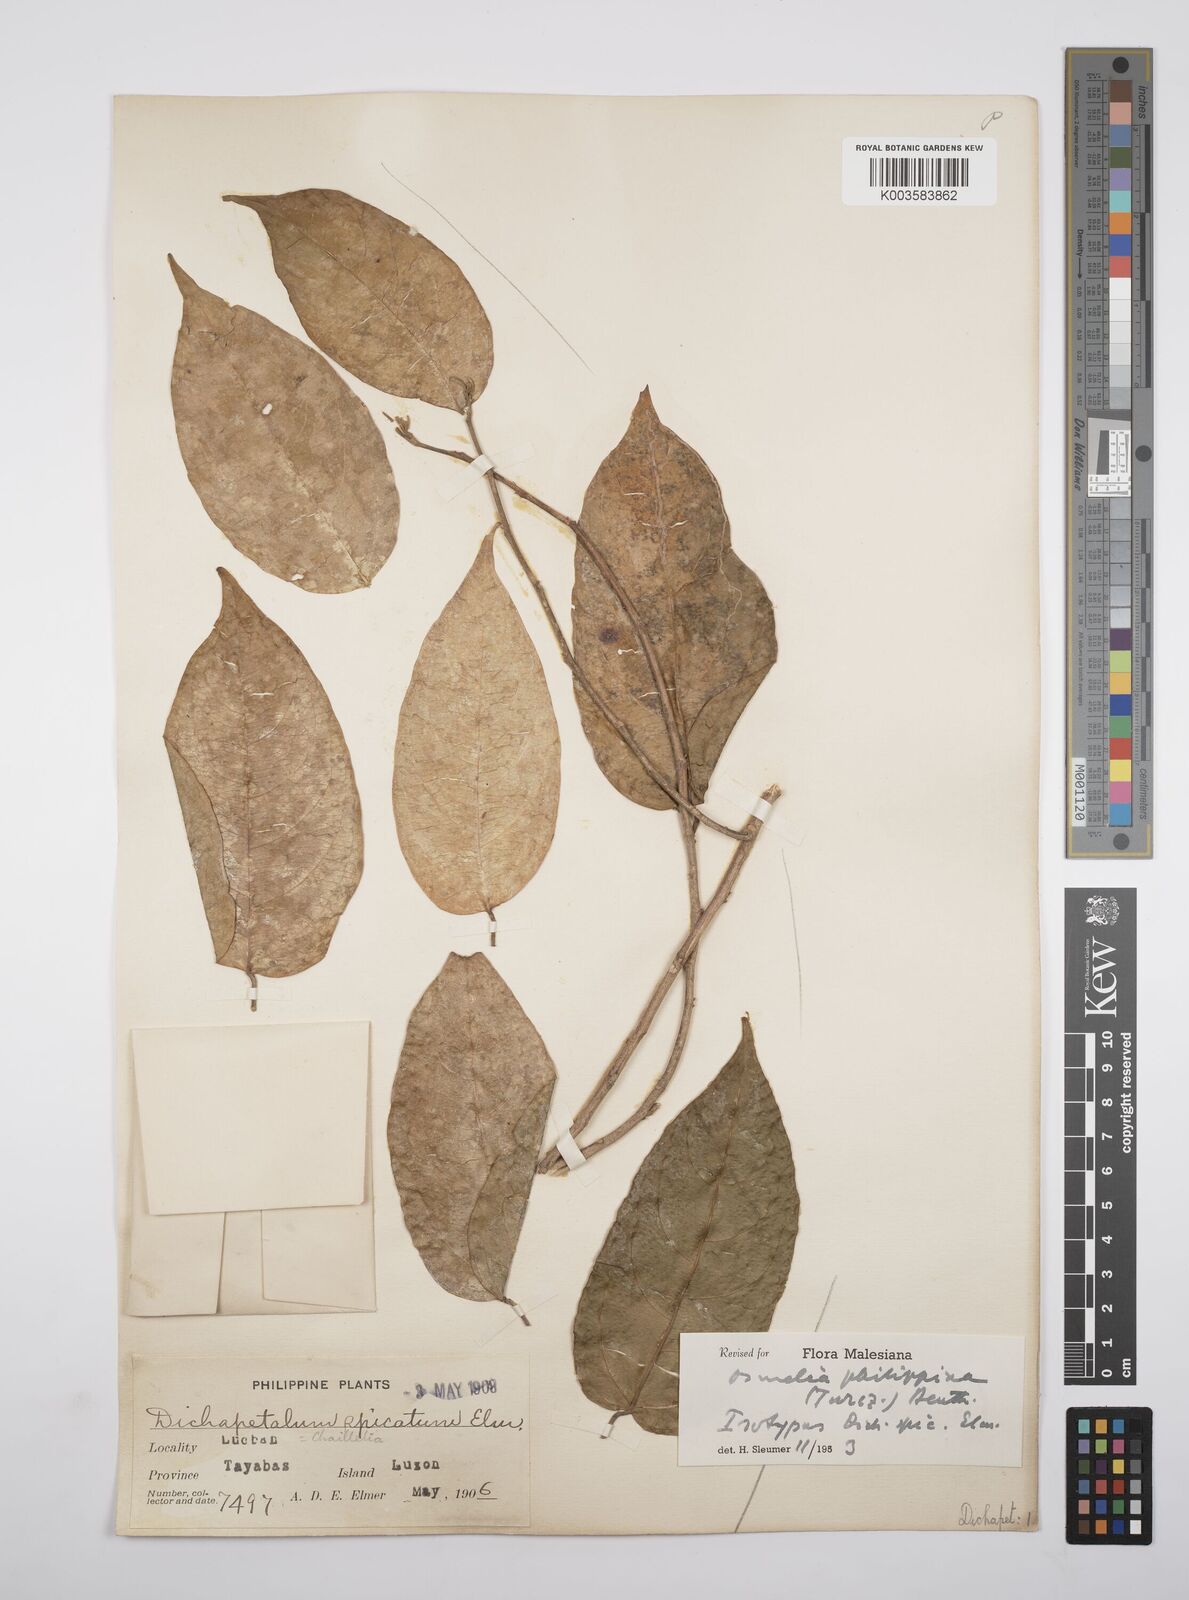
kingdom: Plantae
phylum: Tracheophyta
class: Magnoliopsida
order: Malpighiales
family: Salicaceae
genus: Osmelia
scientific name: Osmelia philippina
